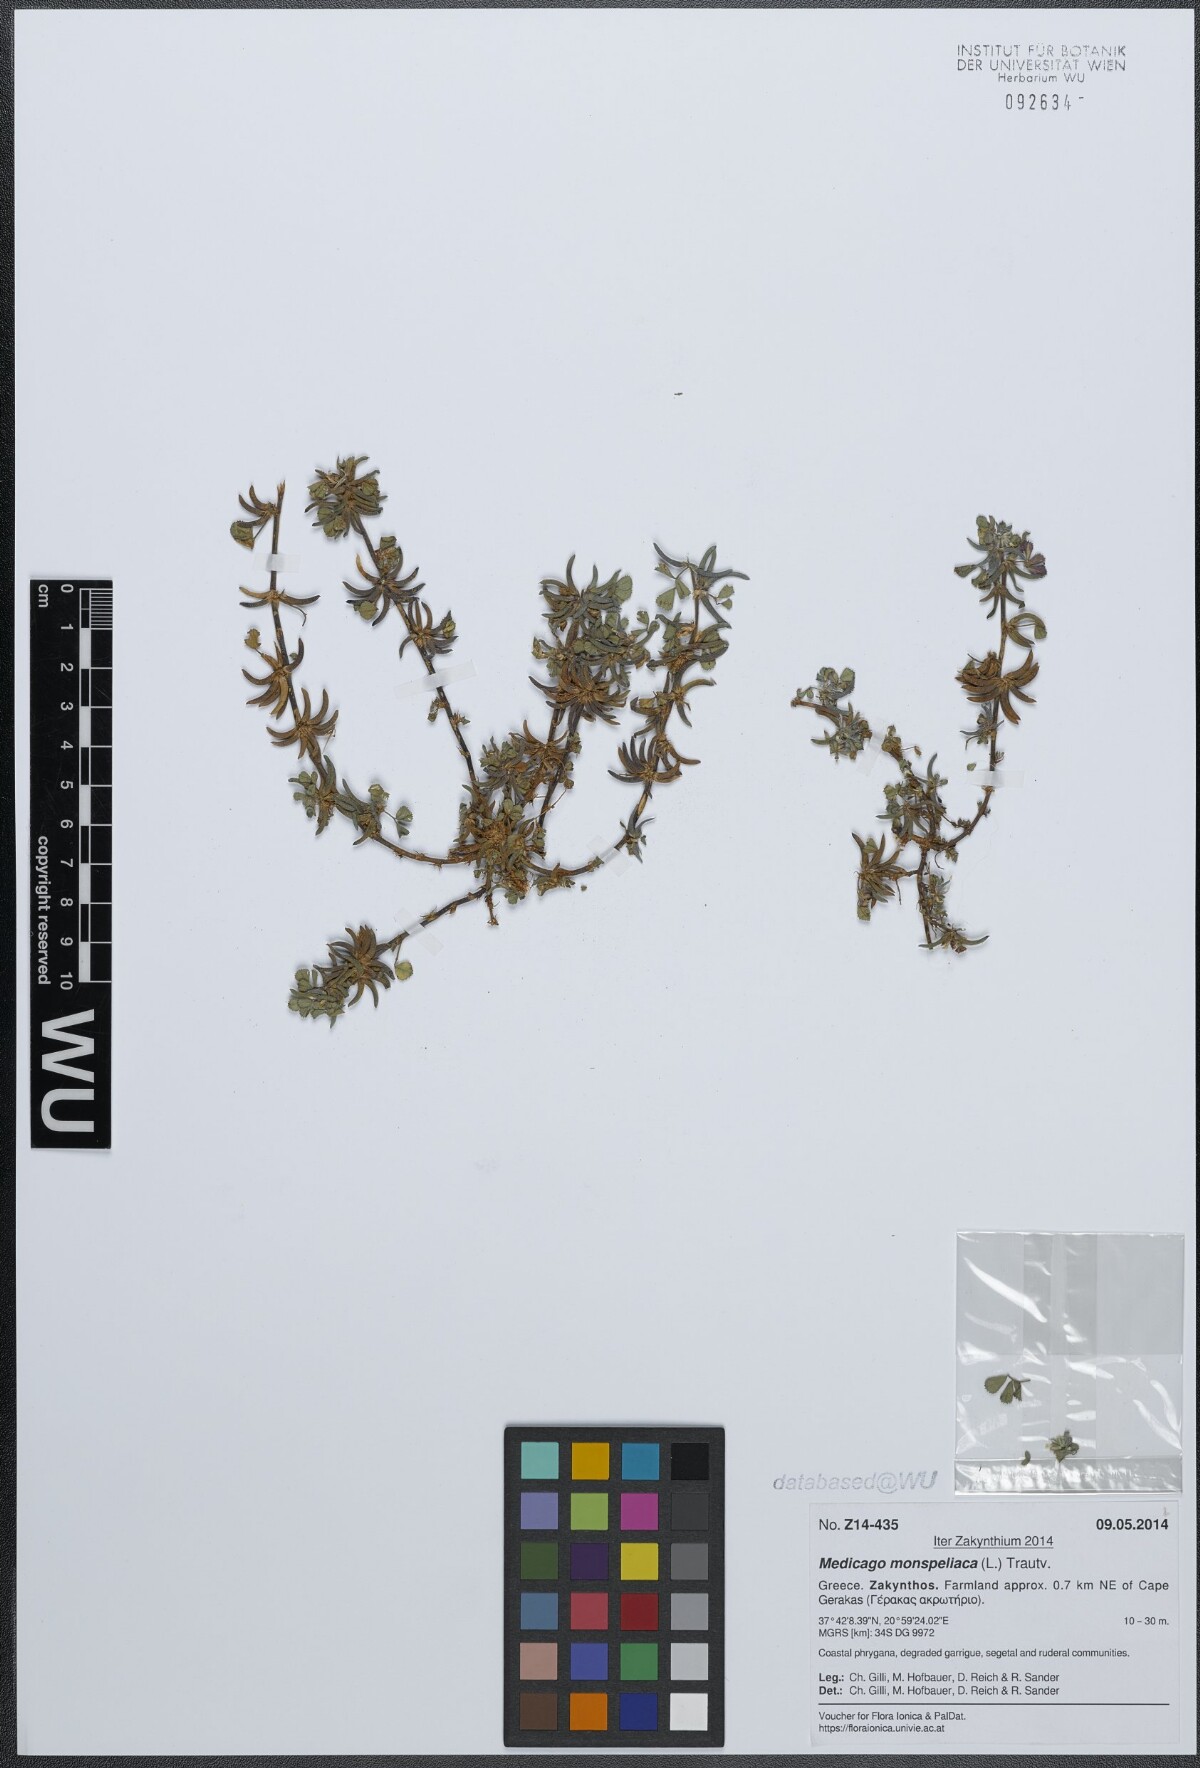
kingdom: Plantae
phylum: Tracheophyta
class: Magnoliopsida
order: Fabales
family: Fabaceae
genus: Medicago
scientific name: Medicago monspeliaca
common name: Hairy medick
